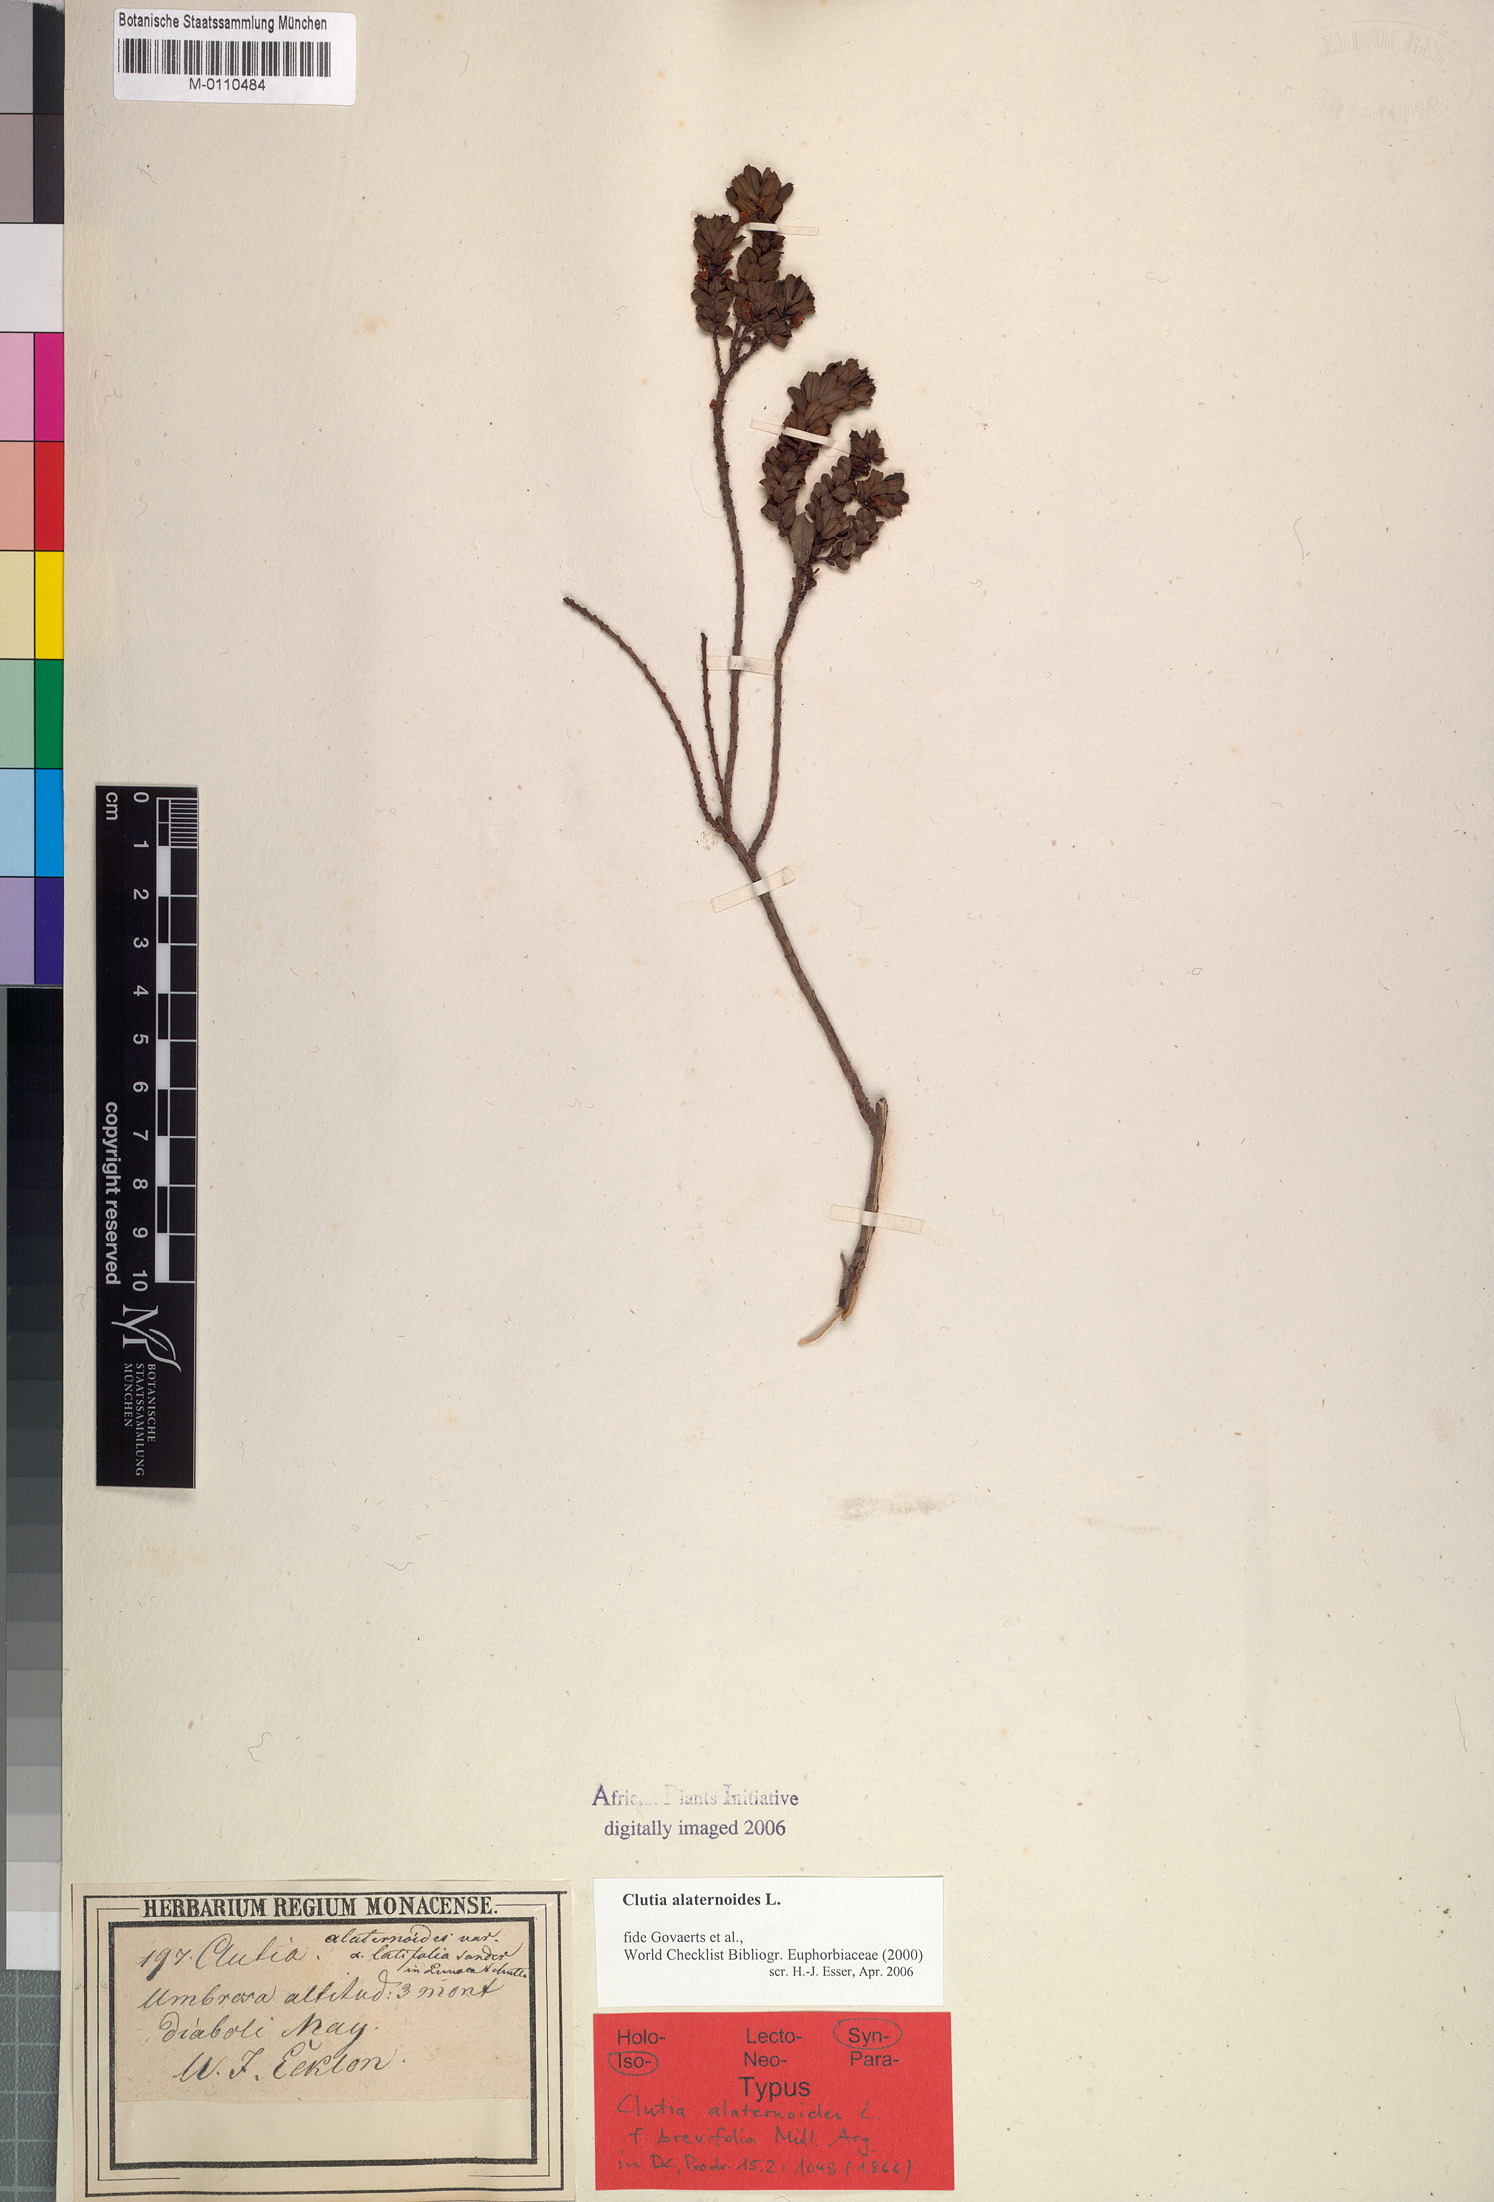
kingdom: Plantae
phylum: Tracheophyta
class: Magnoliopsida
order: Malpighiales
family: Peraceae
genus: Clutia
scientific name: Clutia alaternoides
